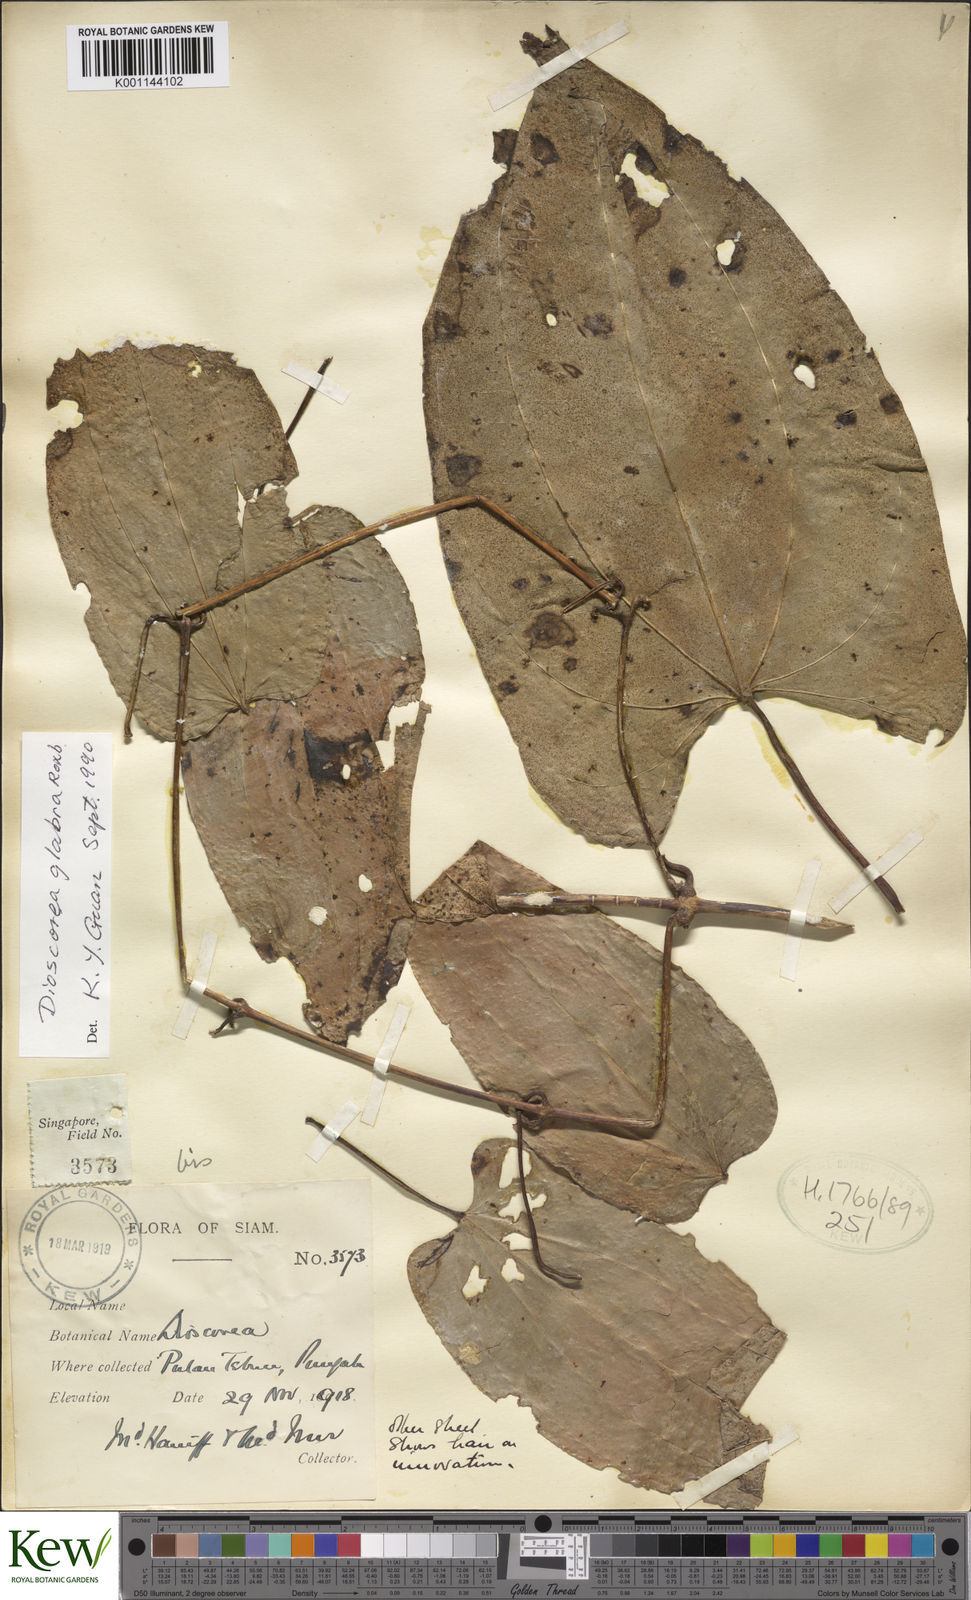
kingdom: Plantae
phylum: Tracheophyta
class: Liliopsida
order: Dioscoreales
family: Dioscoreaceae
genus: Dioscorea
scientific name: Dioscorea glabra
